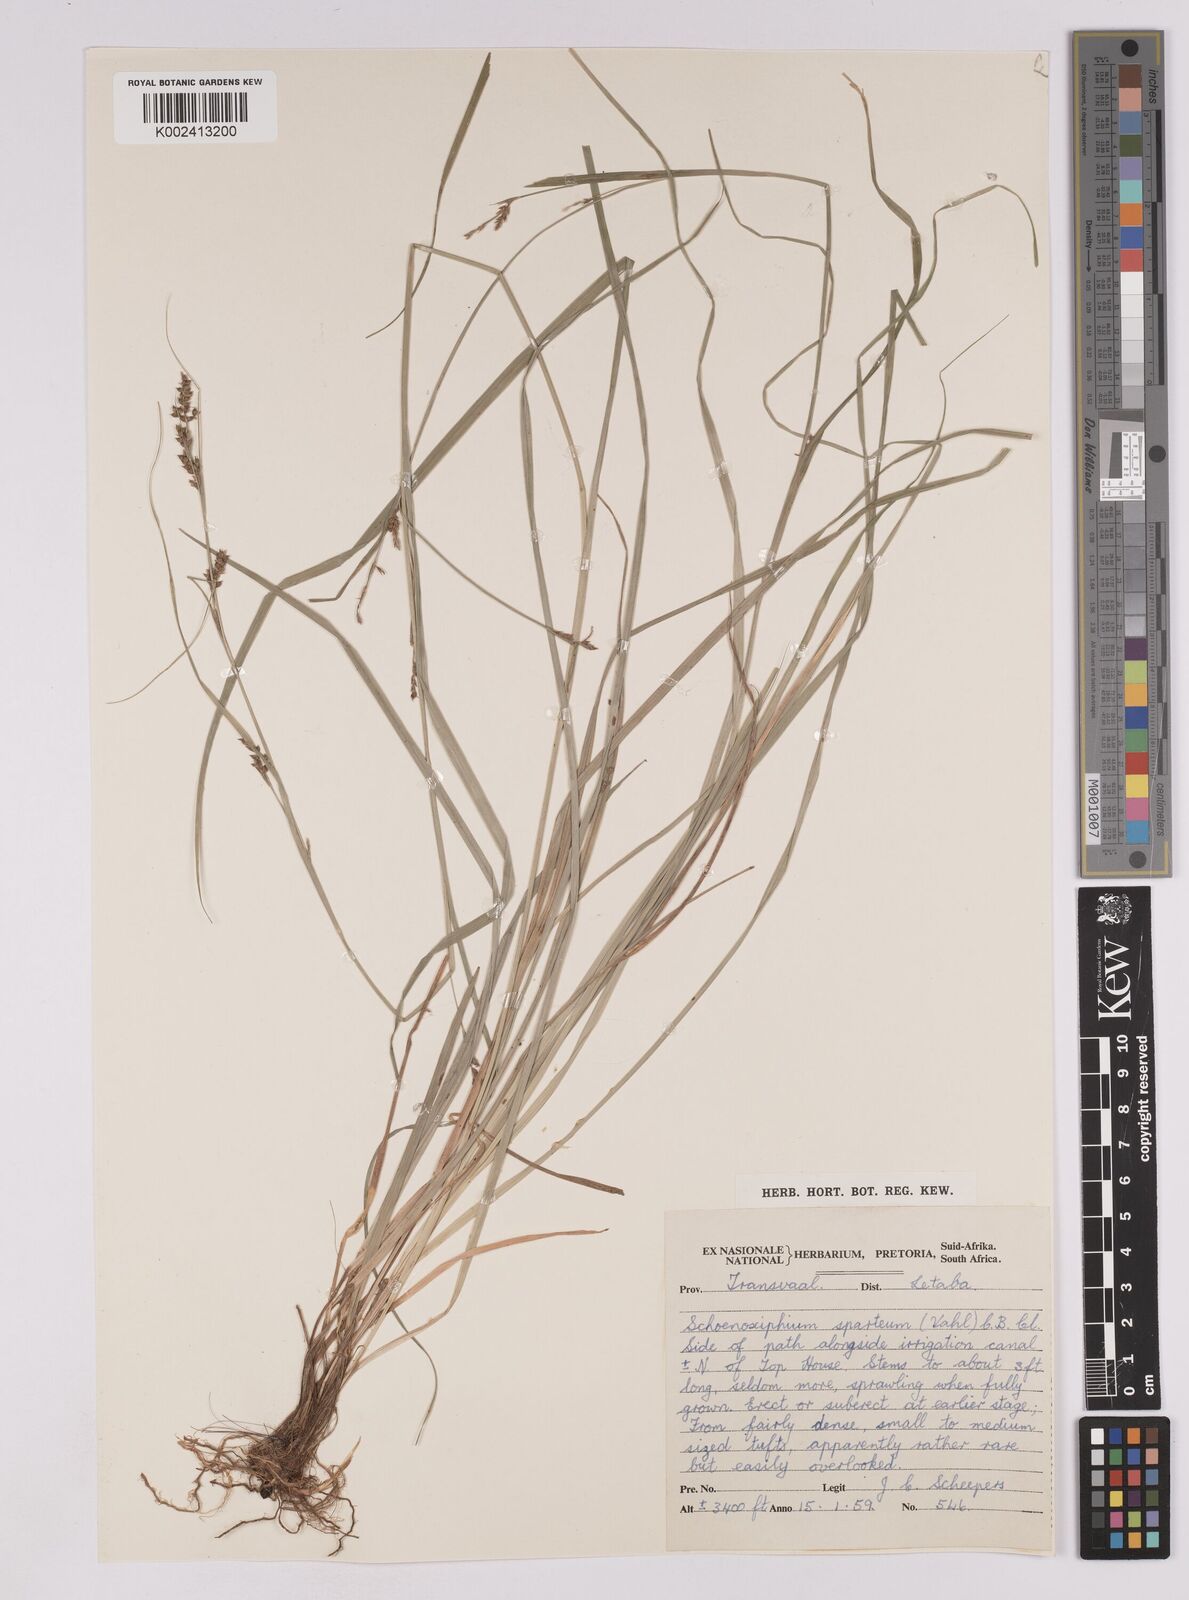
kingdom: Plantae
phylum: Tracheophyta
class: Liliopsida
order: Poales
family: Cyperaceae
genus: Carex
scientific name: Carex spartea
